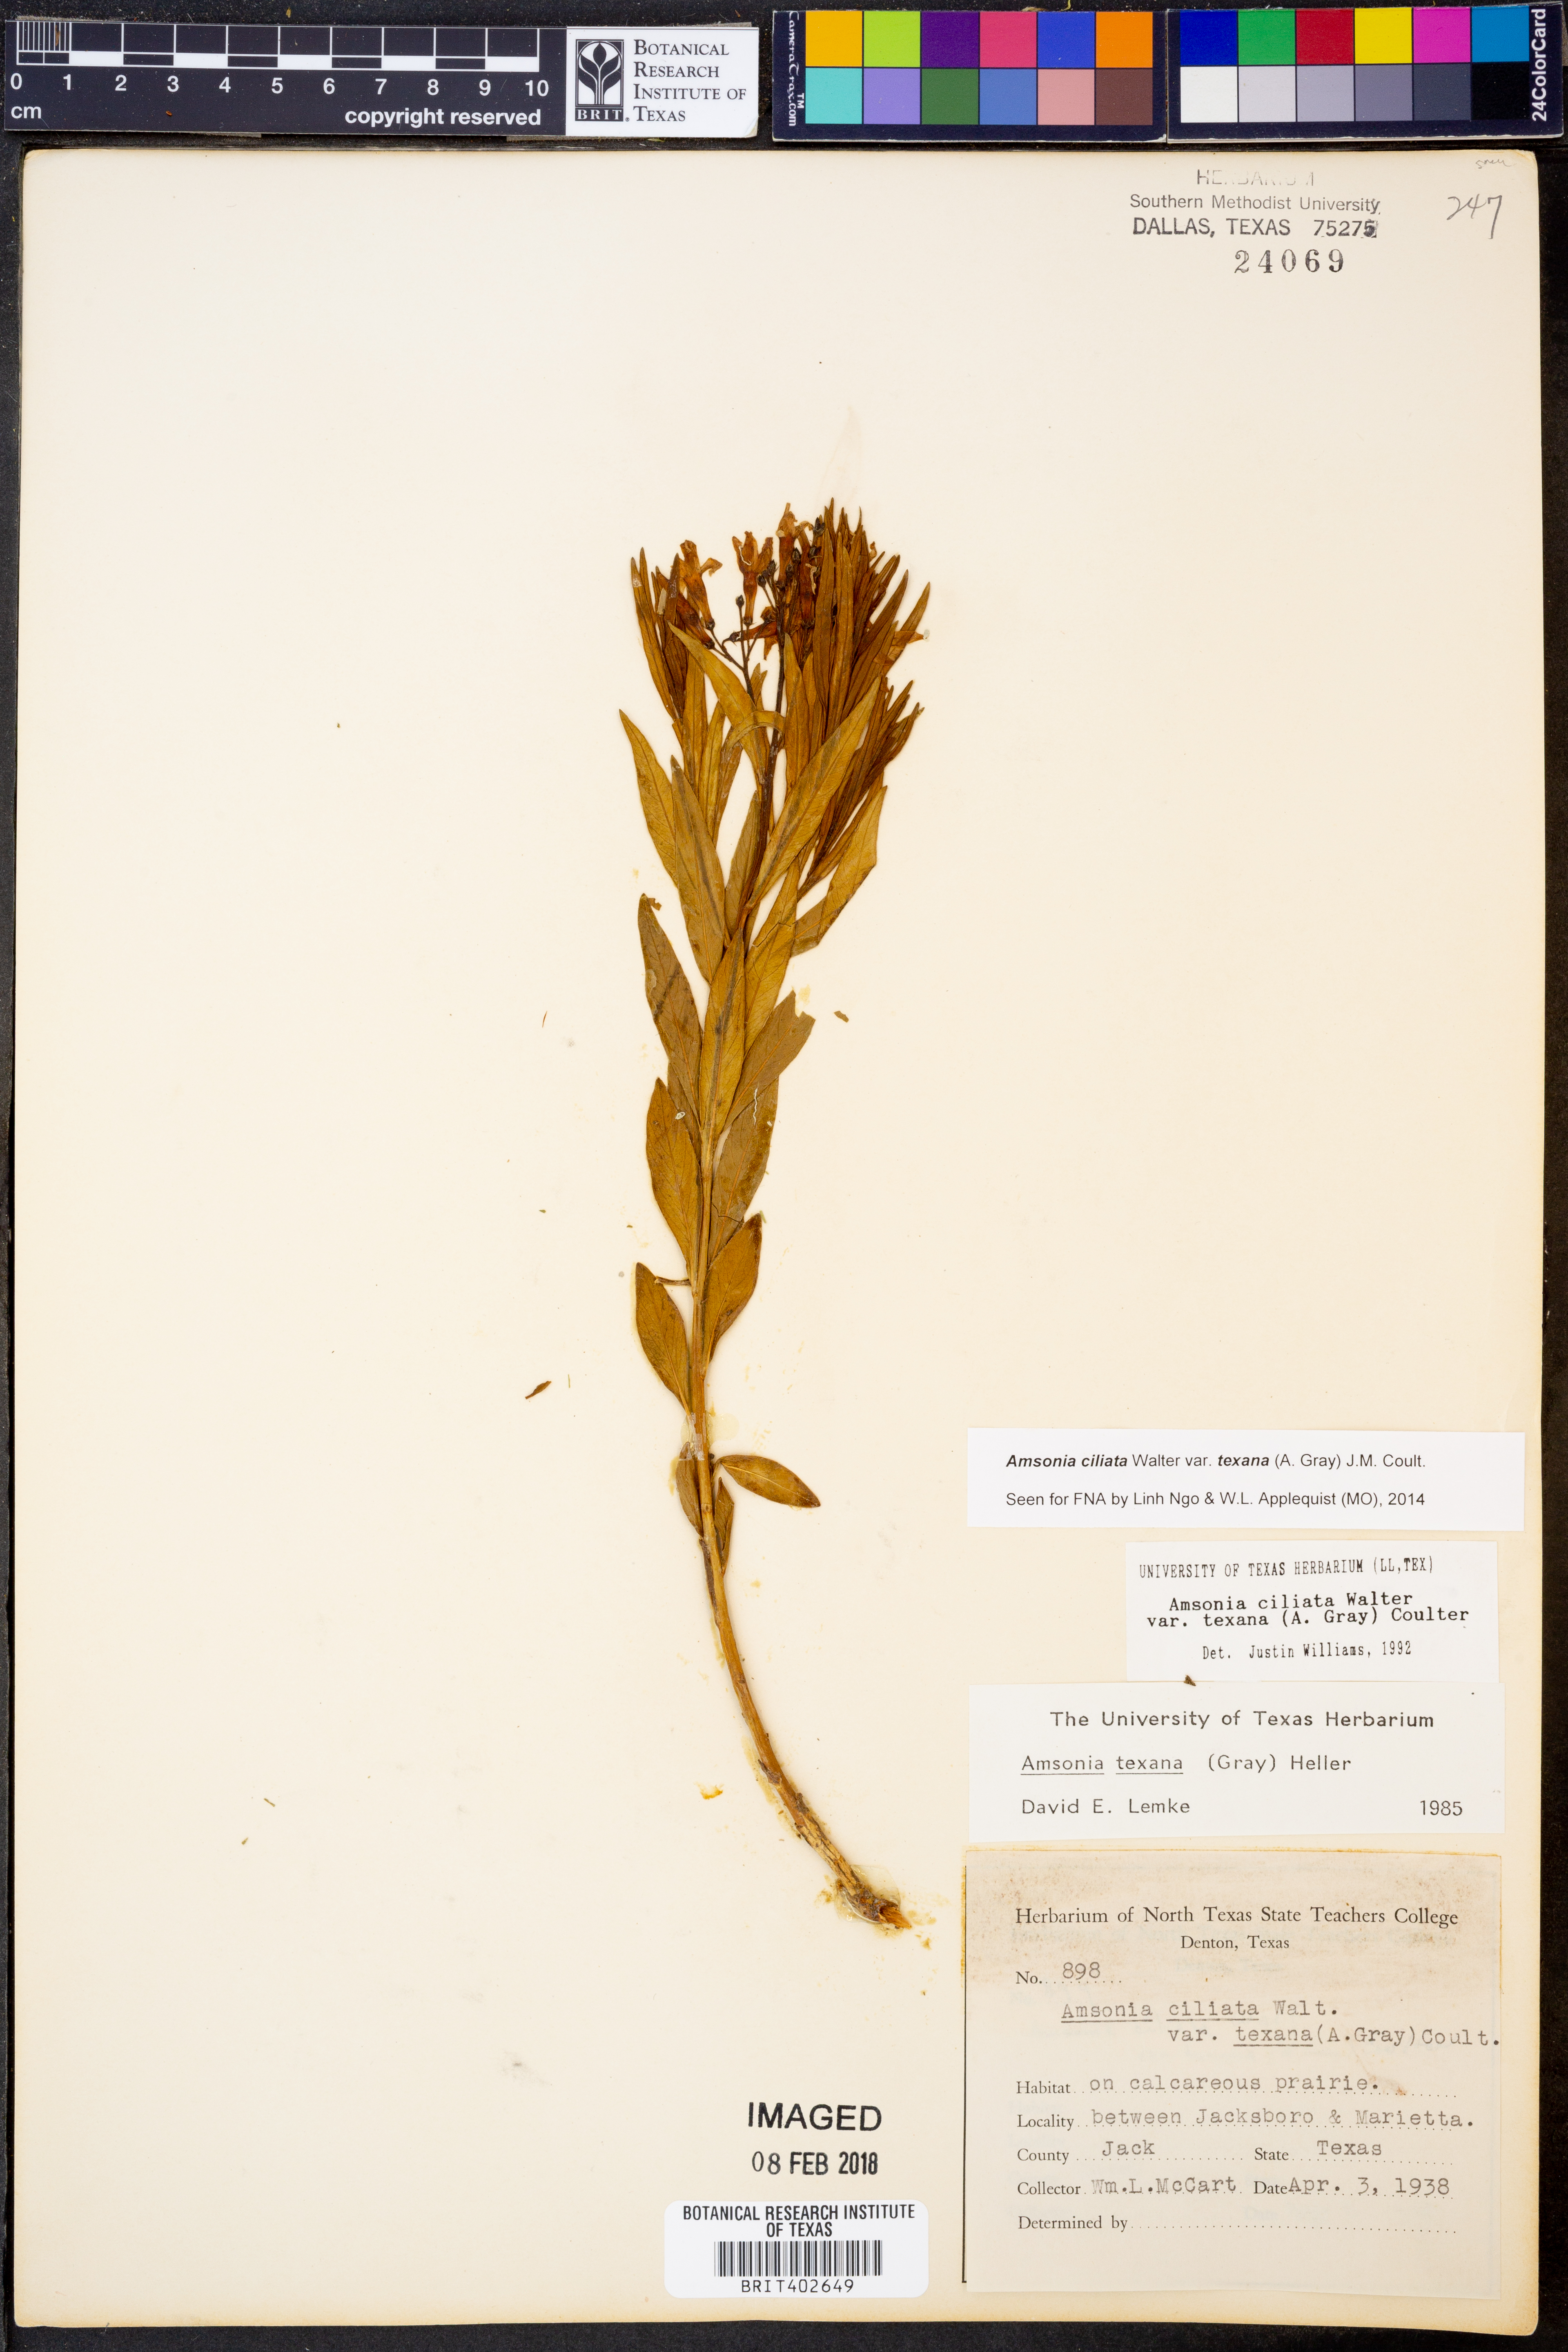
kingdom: Plantae
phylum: Tracheophyta
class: Magnoliopsida
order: Gentianales
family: Apocynaceae
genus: Amsonia
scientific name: Amsonia ciliata
